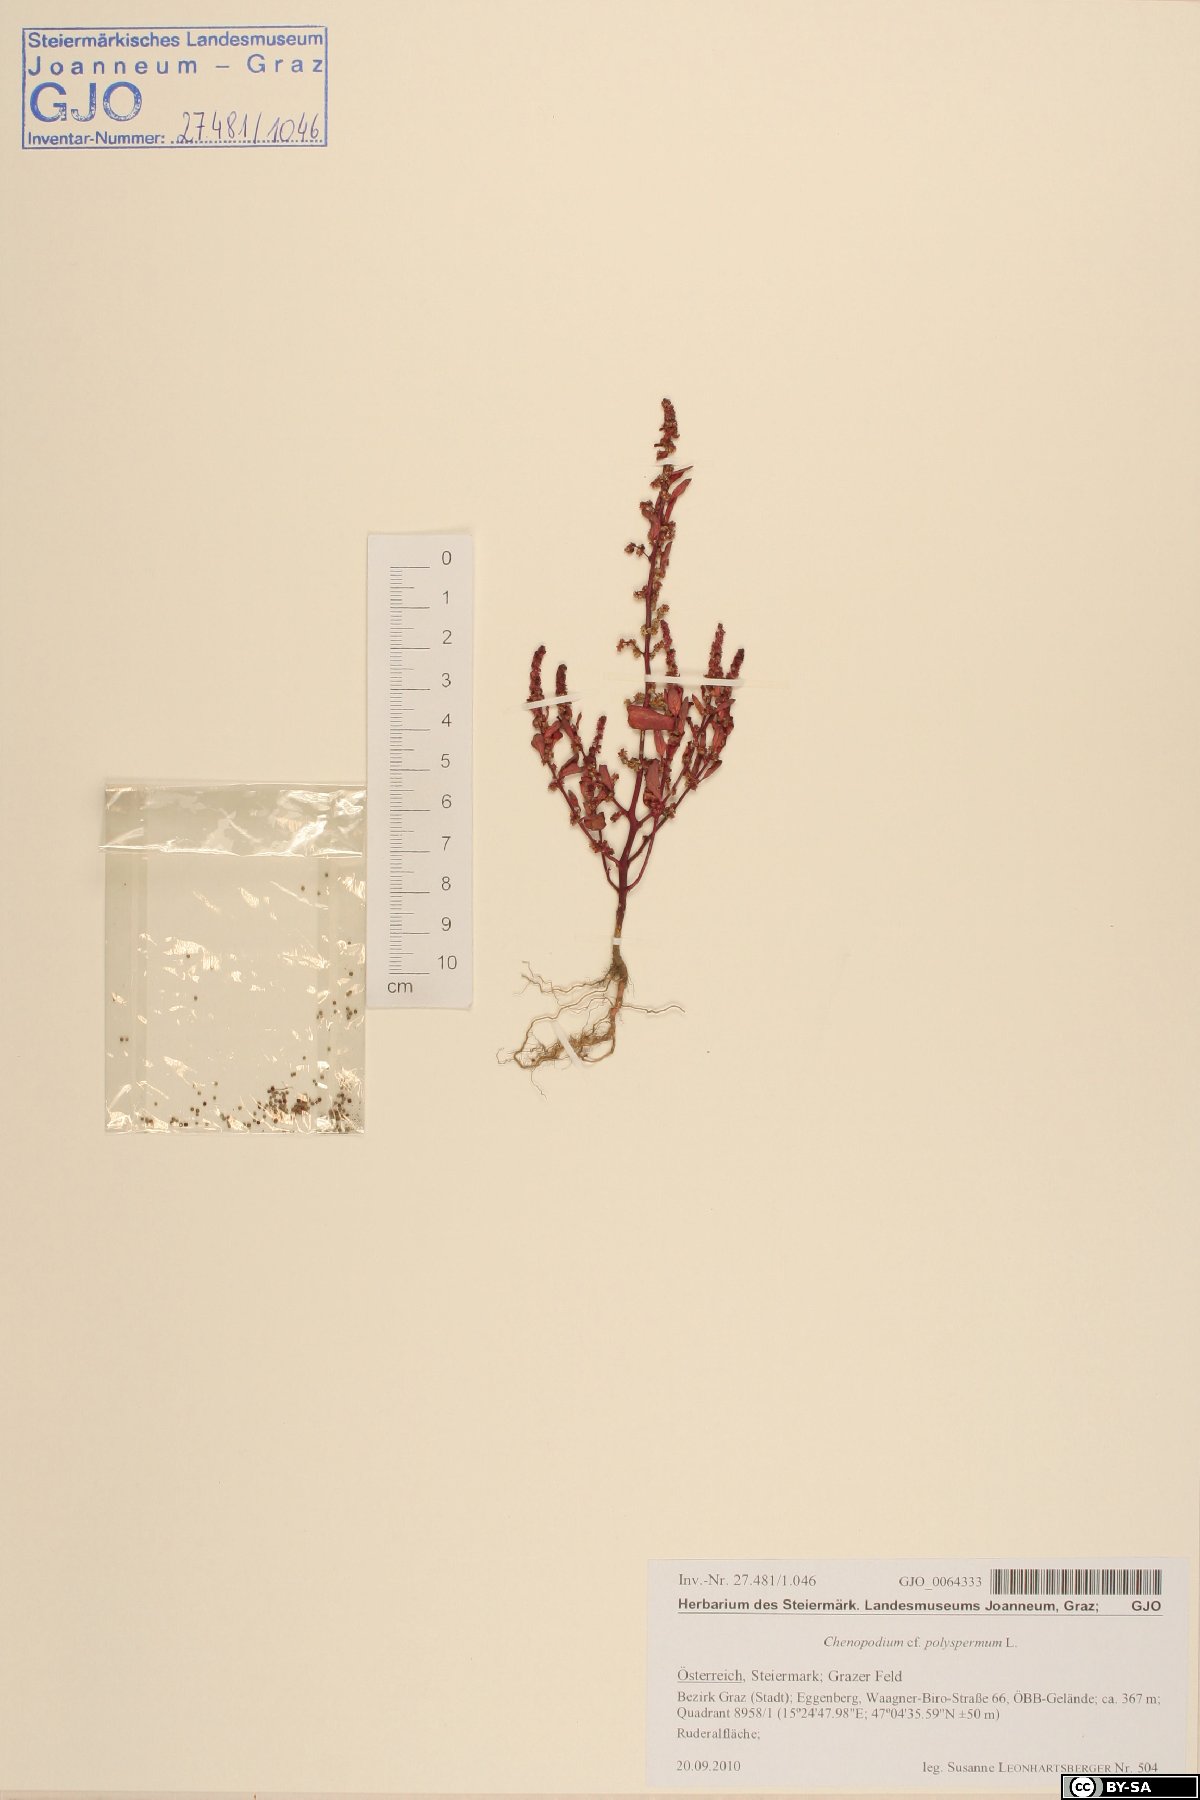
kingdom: Plantae
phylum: Tracheophyta
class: Magnoliopsida
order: Caryophyllales
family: Amaranthaceae
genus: Lipandra
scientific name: Lipandra polysperma
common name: Many-seed goosefoot
